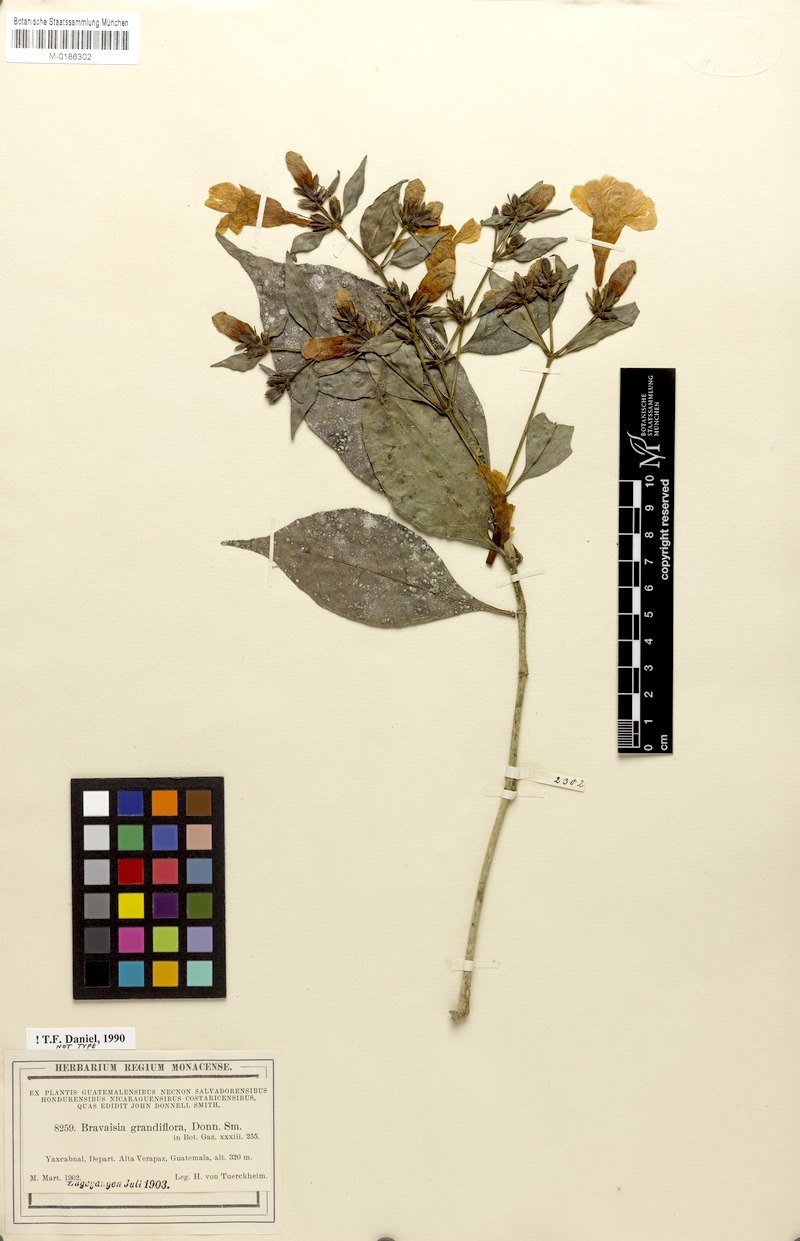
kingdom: Plantae
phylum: Tracheophyta
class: Magnoliopsida
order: Lamiales
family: Acanthaceae
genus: Bravaisia
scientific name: Bravaisia grandiflora
